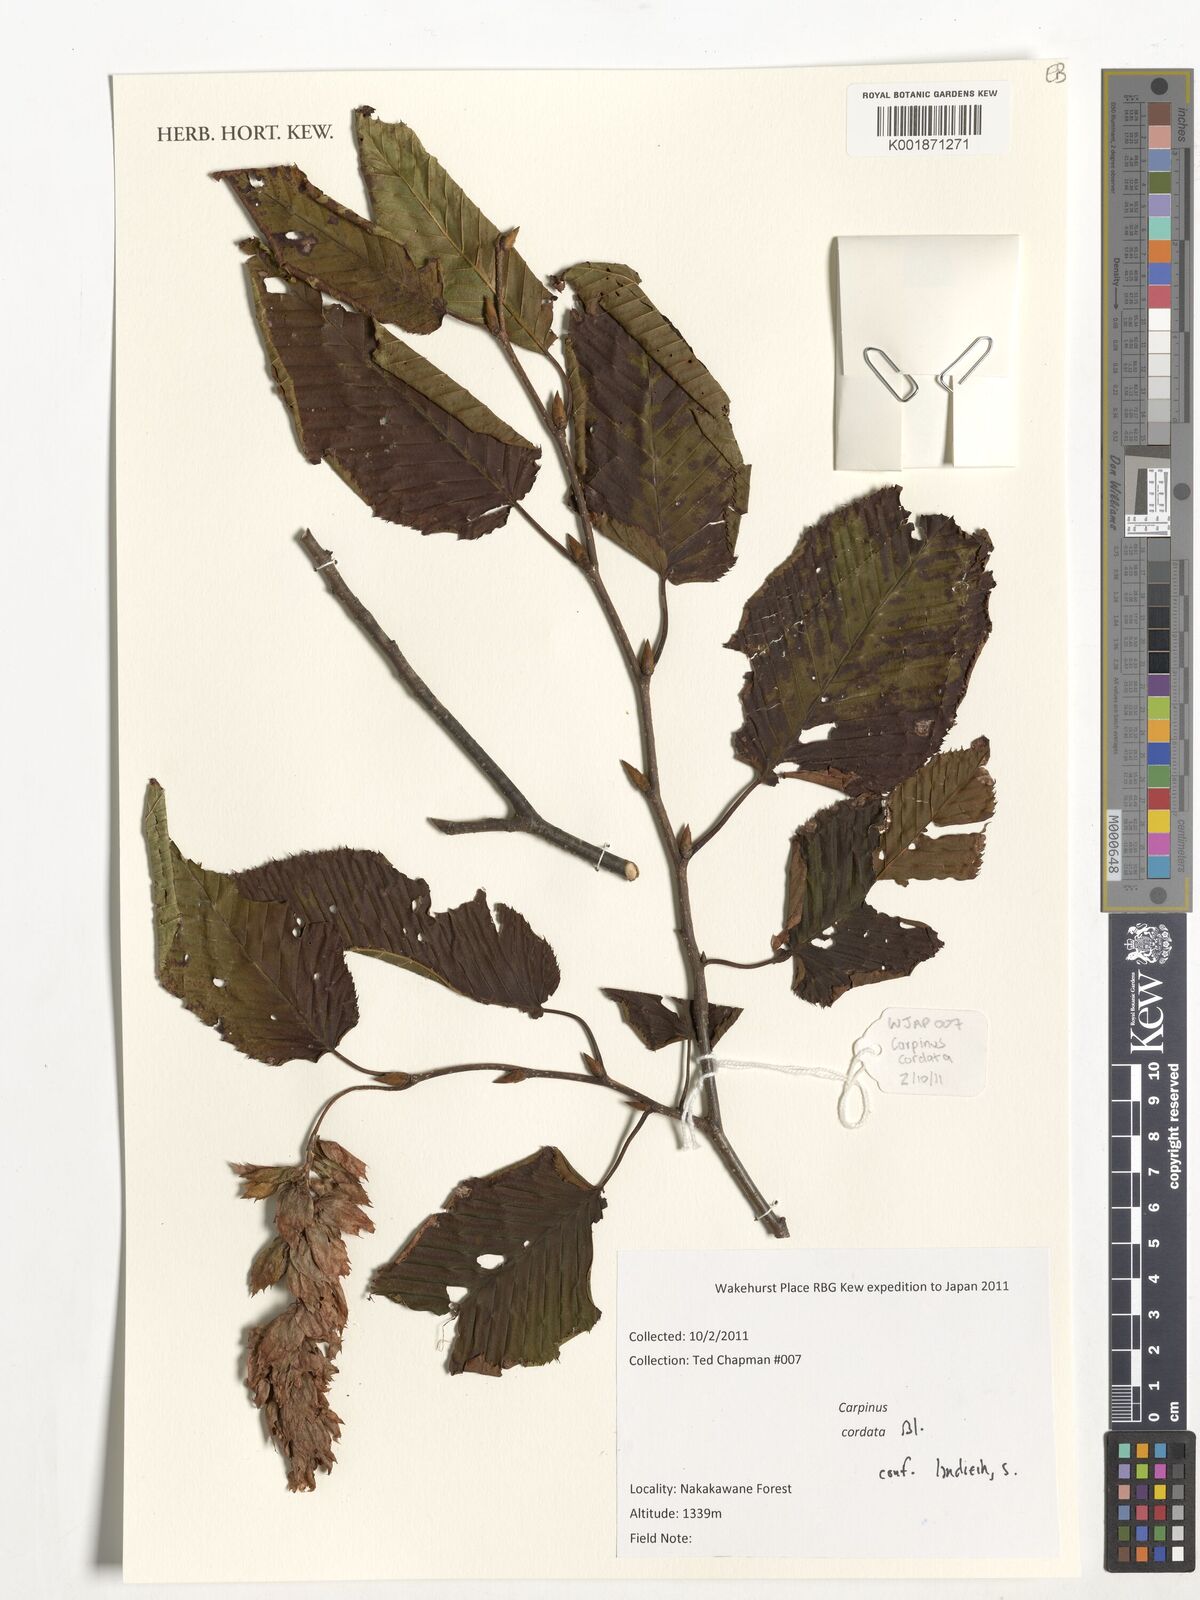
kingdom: Plantae
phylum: Tracheophyta
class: Magnoliopsida
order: Fagales
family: Betulaceae
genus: Carpinus
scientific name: Carpinus cordata
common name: Sawa hornbeam
